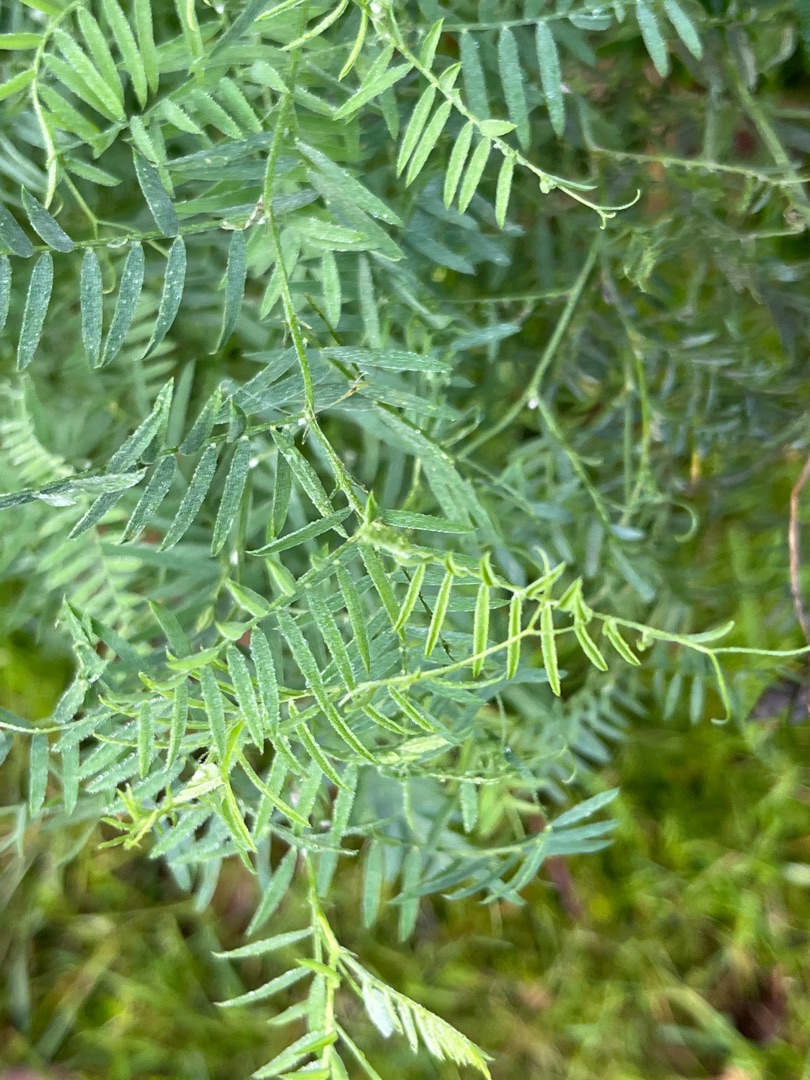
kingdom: Plantae
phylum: Tracheophyta
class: Magnoliopsida
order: Fabales
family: Fabaceae
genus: Vicia
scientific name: Vicia cracca
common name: Muse-vikke
